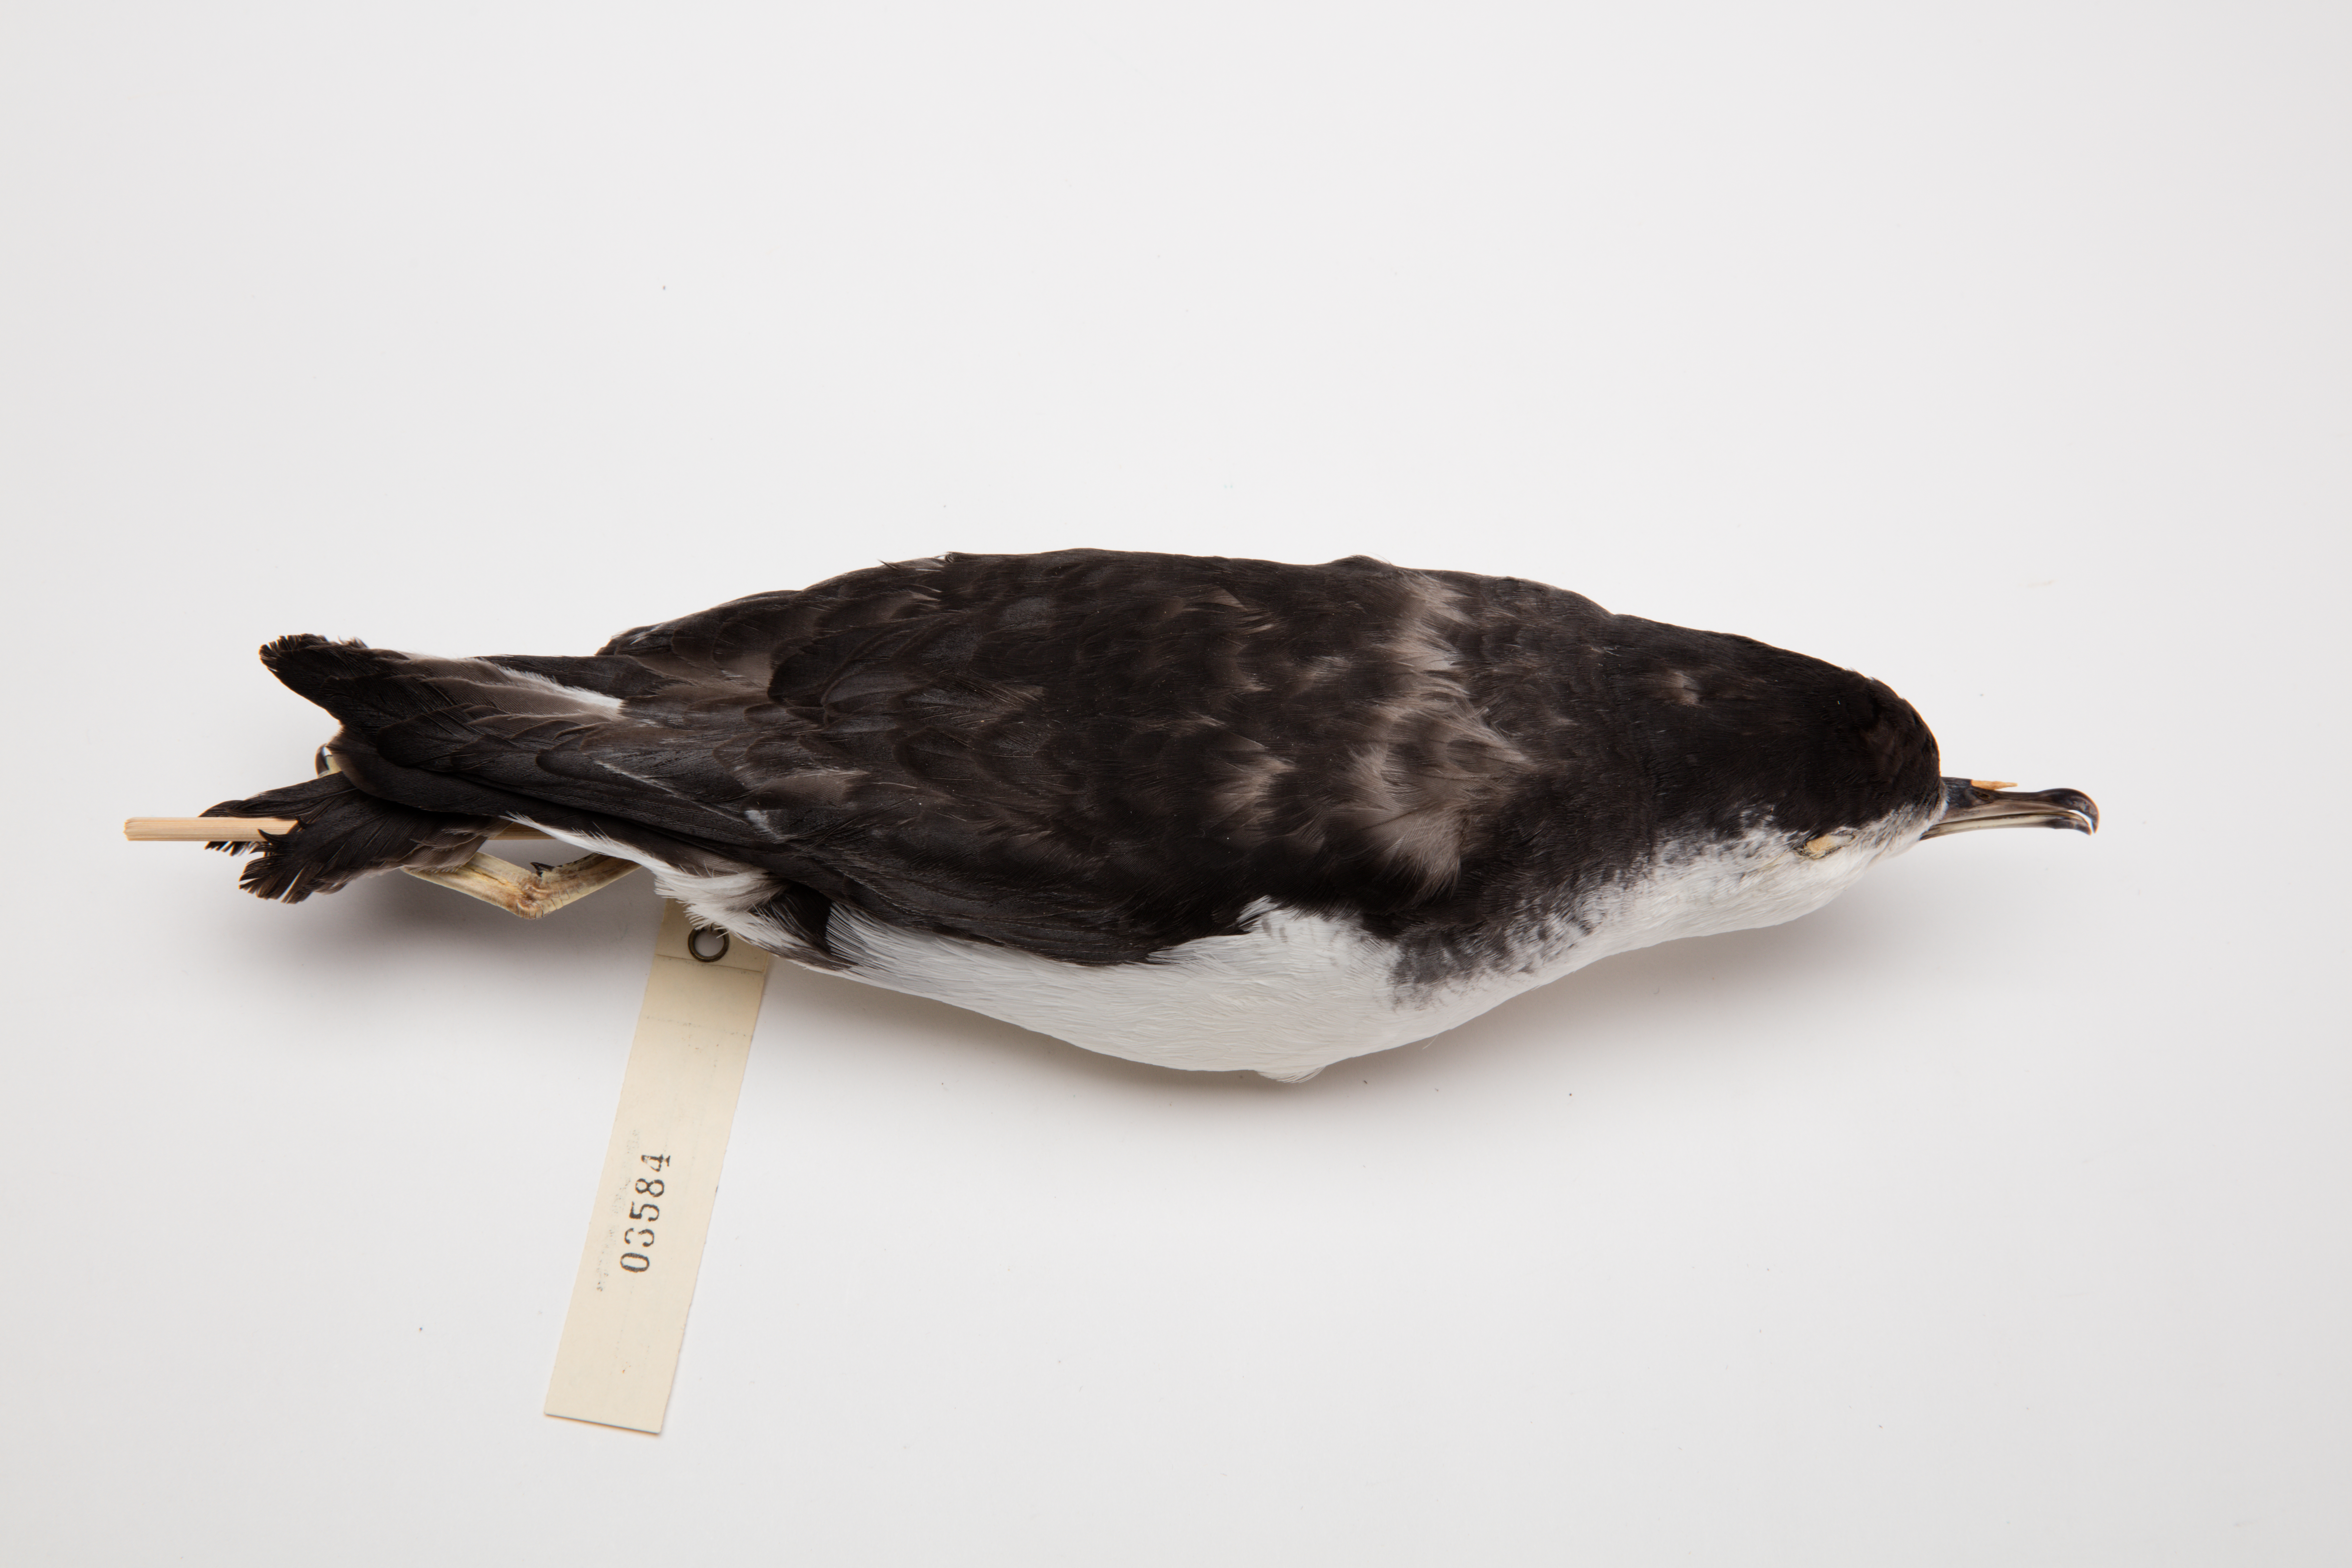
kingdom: Animalia
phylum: Chordata
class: Aves
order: Procellariiformes
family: Procellariidae
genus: Puffinus
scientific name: Puffinus assimilis
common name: Little shearwater
